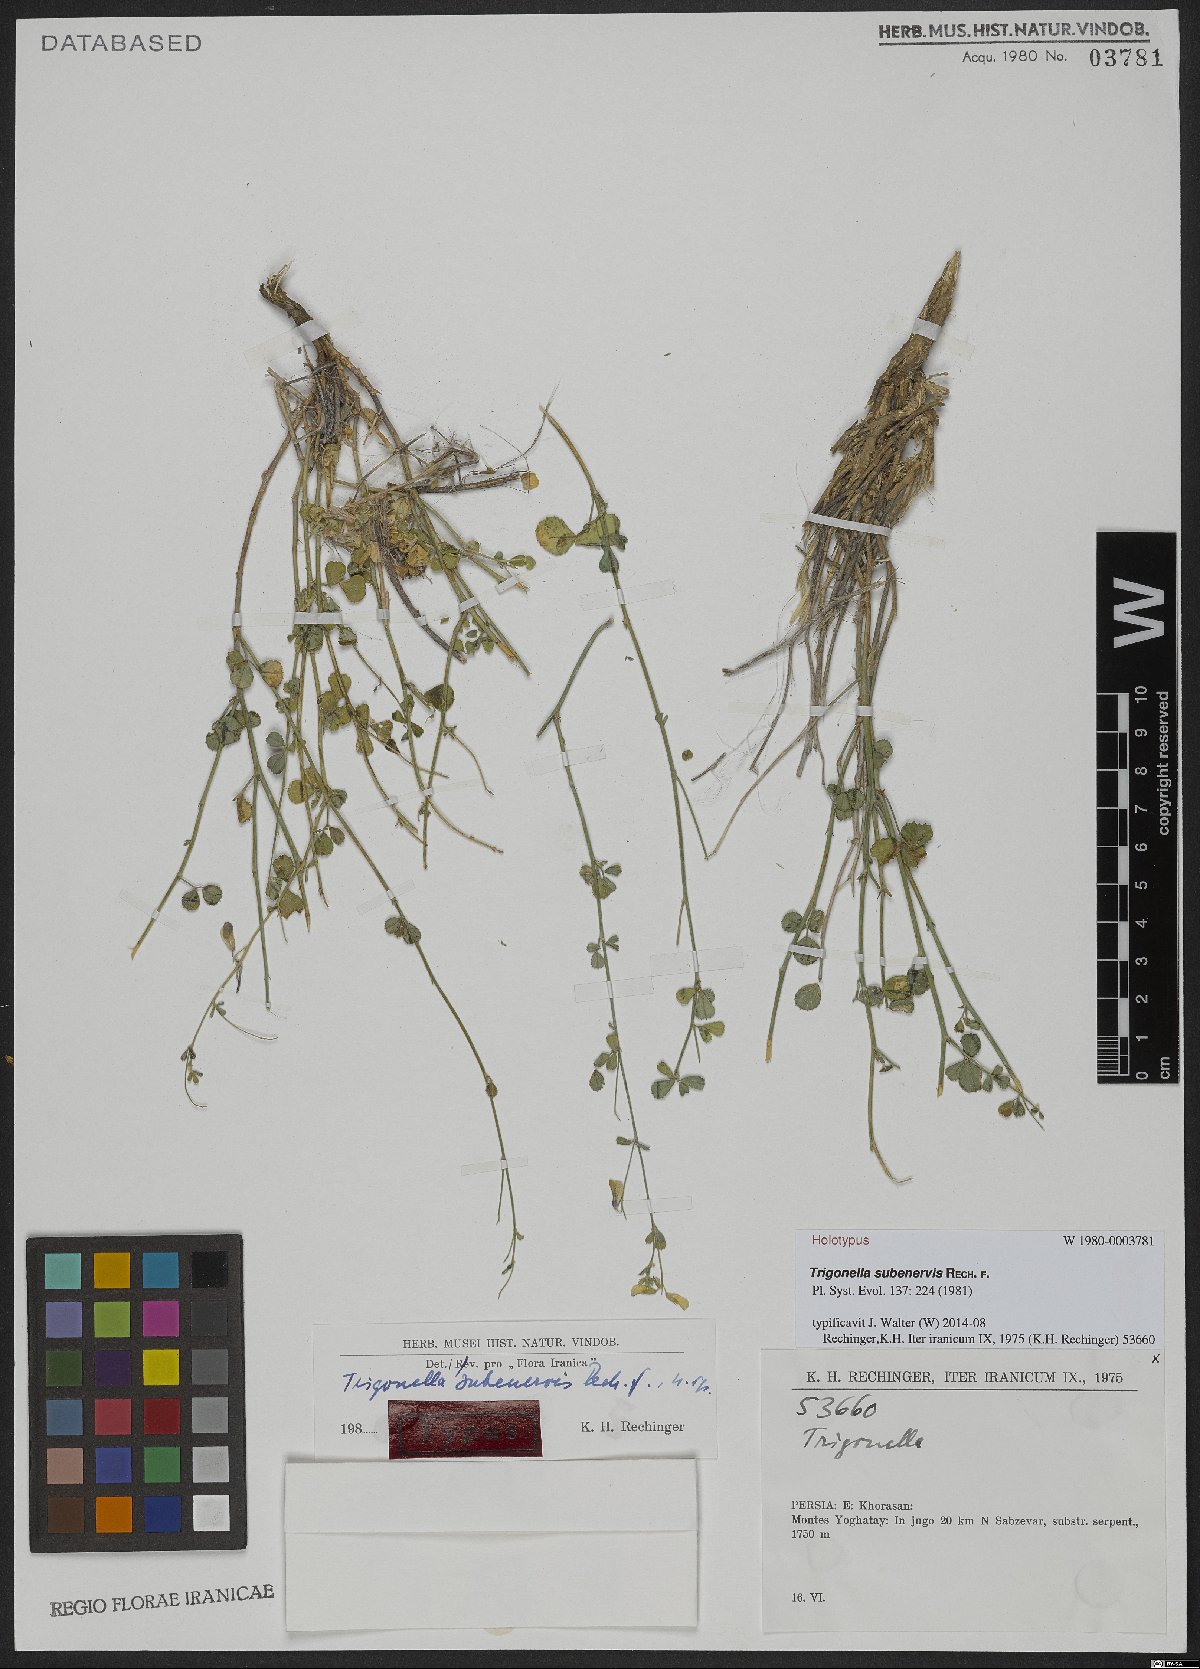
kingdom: Plantae
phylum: Tracheophyta
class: Magnoliopsida
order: Fabales
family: Fabaceae
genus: Trigonella
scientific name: Trigonella subenervis
